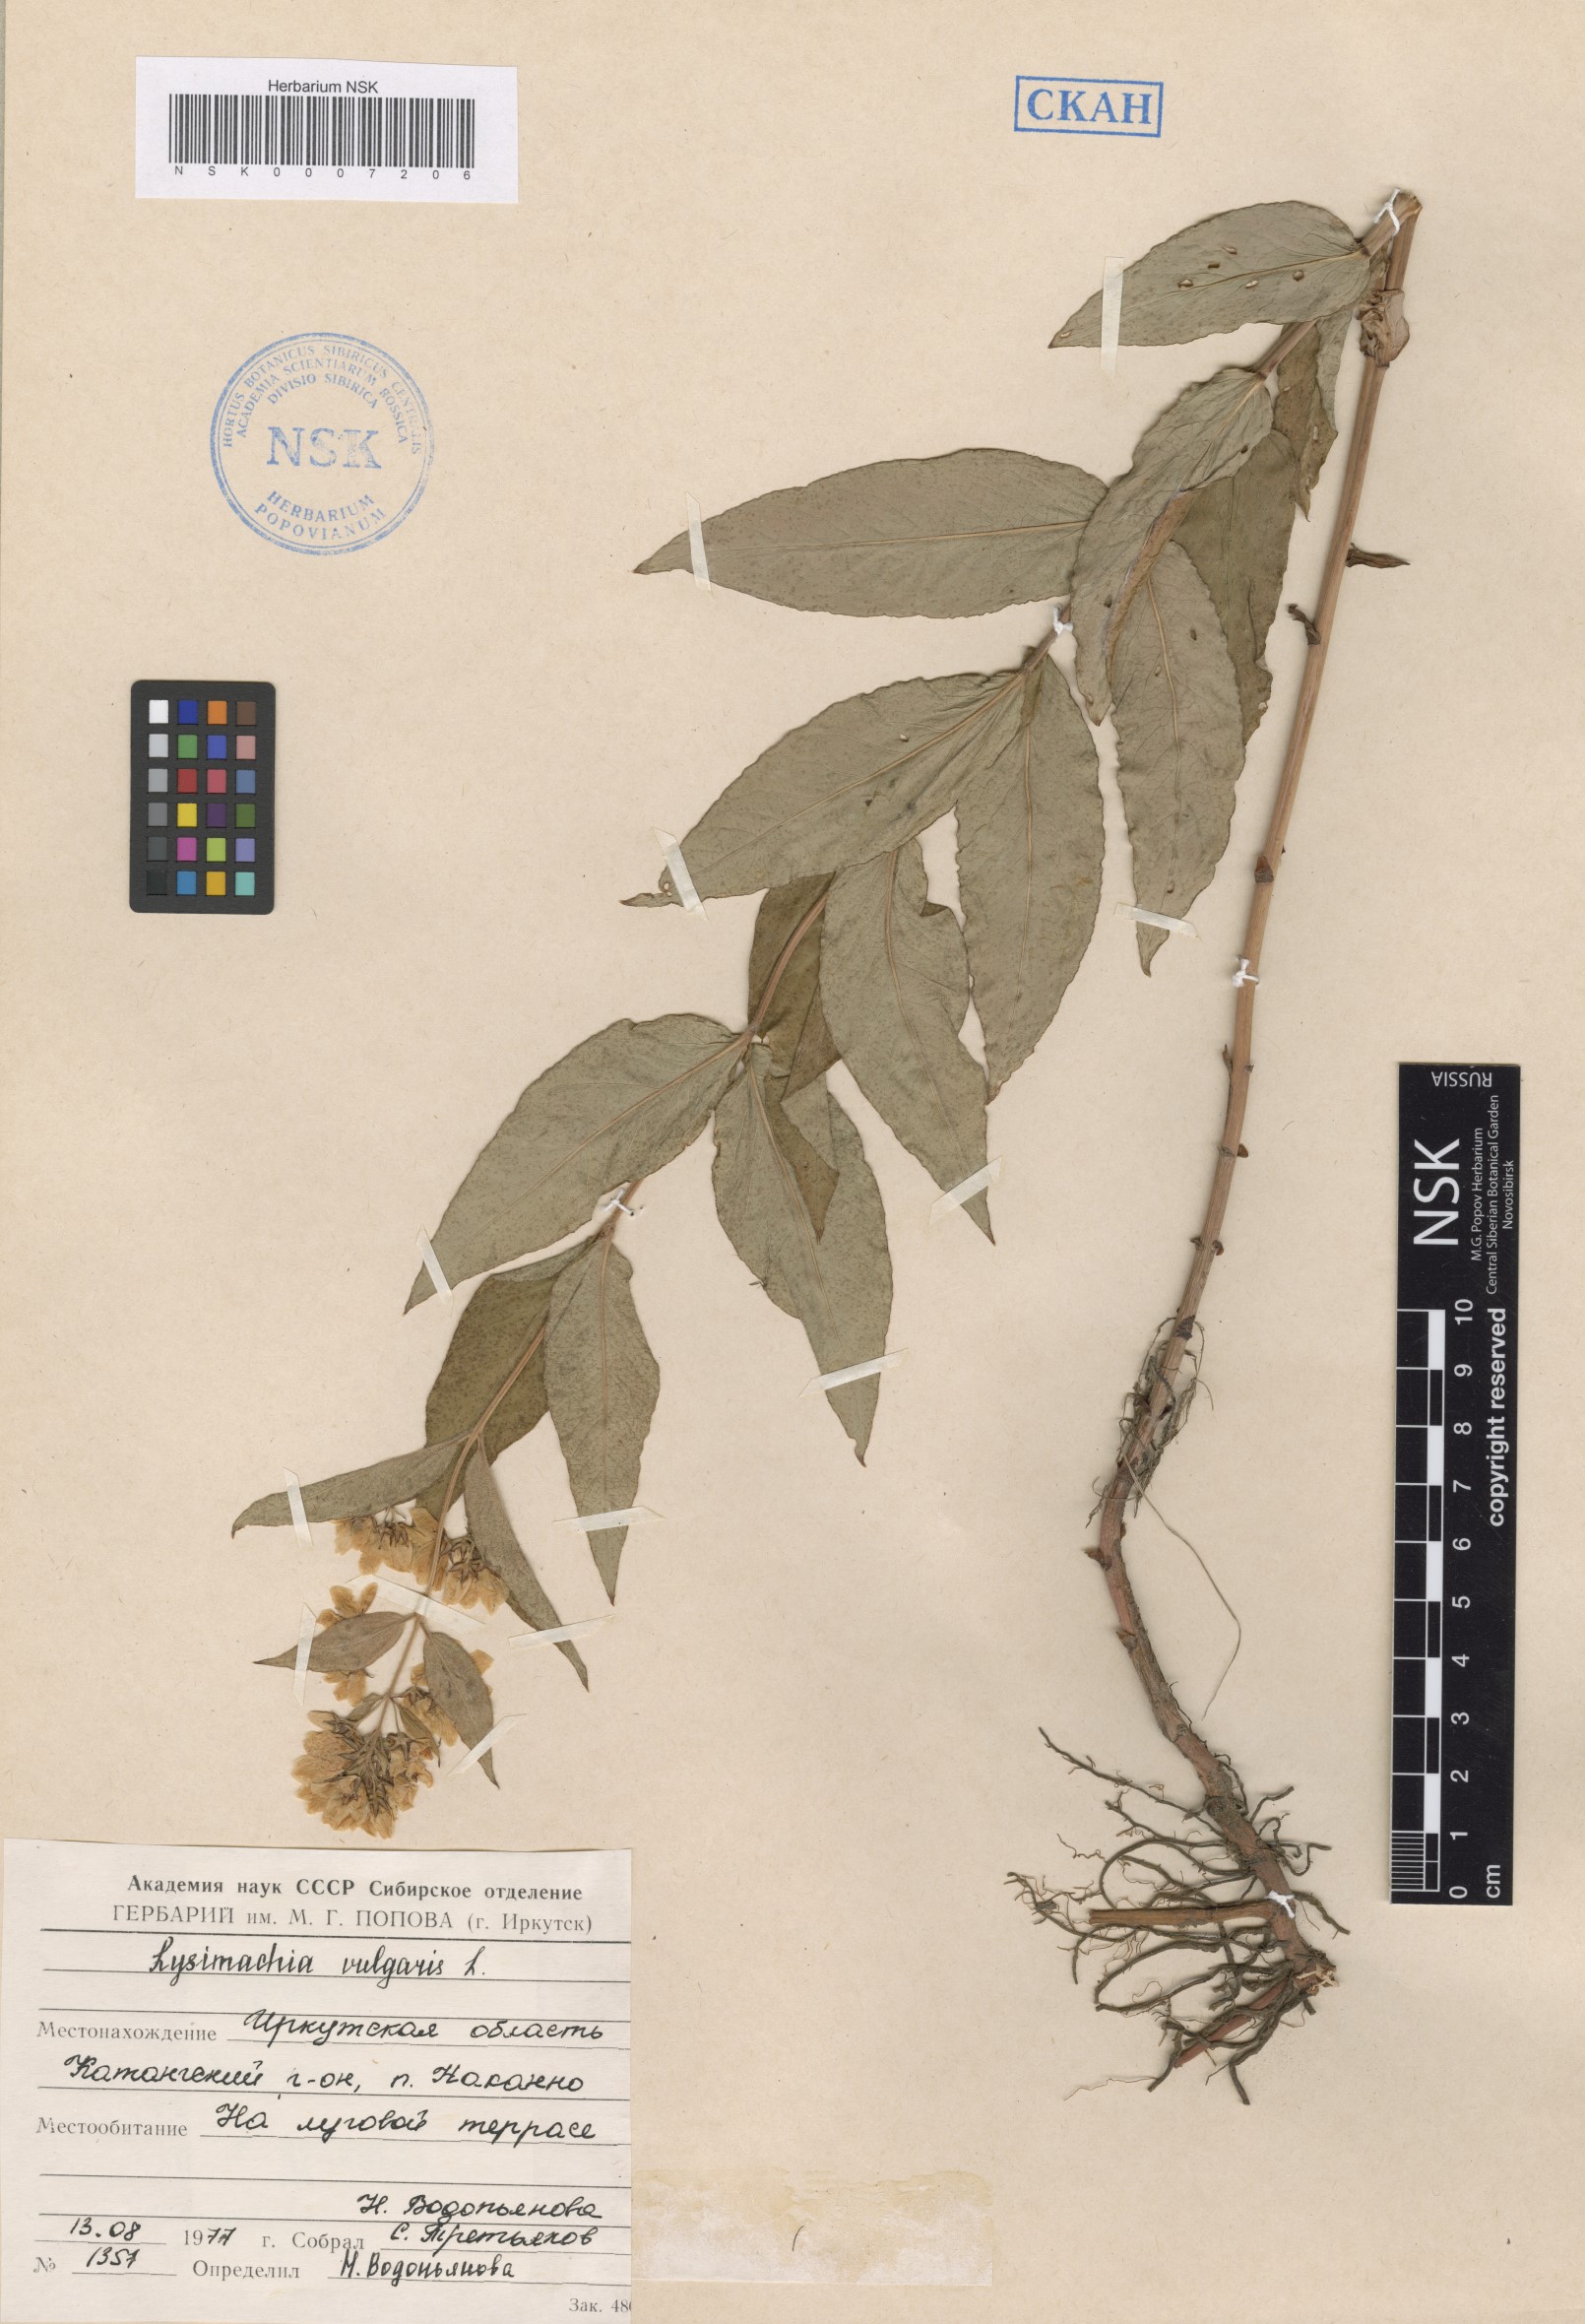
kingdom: Plantae
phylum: Tracheophyta
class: Magnoliopsida
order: Ericales
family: Primulaceae
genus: Lysimachia
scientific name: Lysimachia vulgaris
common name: Yellow loosestrife
